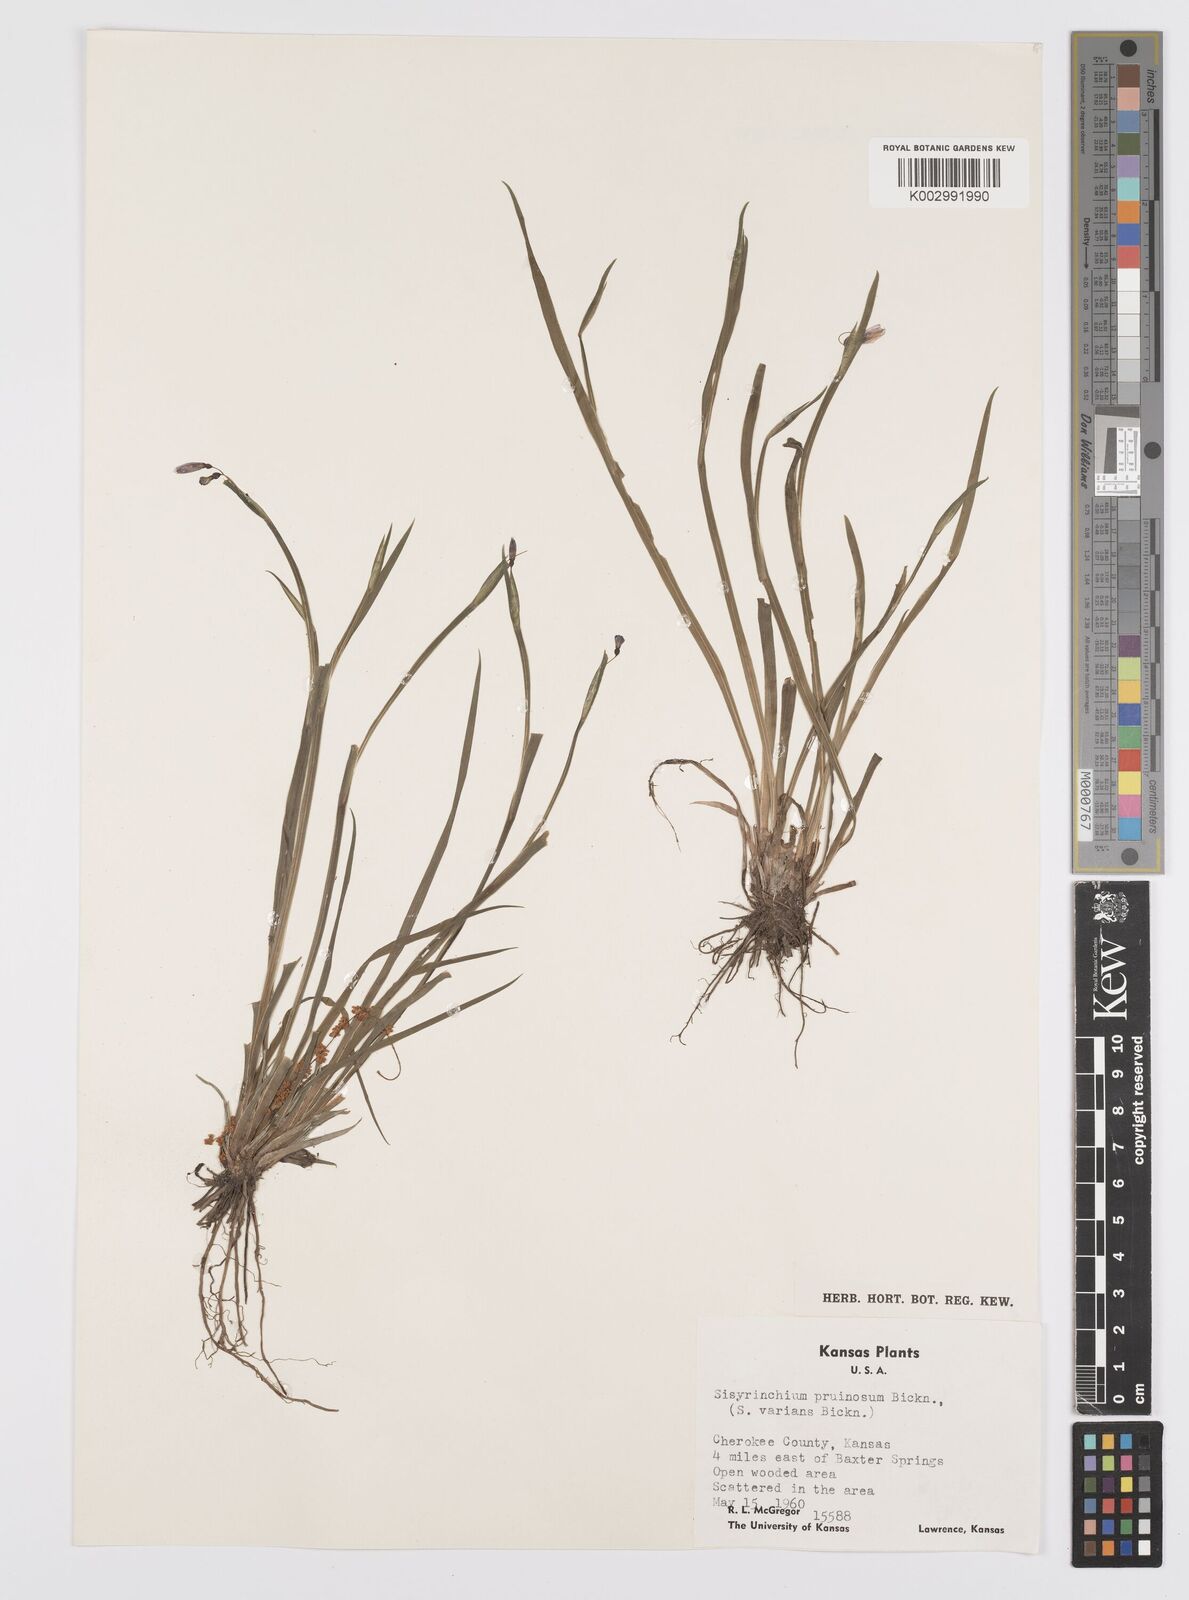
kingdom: Plantae
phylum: Tracheophyta
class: Liliopsida
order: Asparagales
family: Iridaceae
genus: Sisyrinchium
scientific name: Sisyrinchium pruinosum
